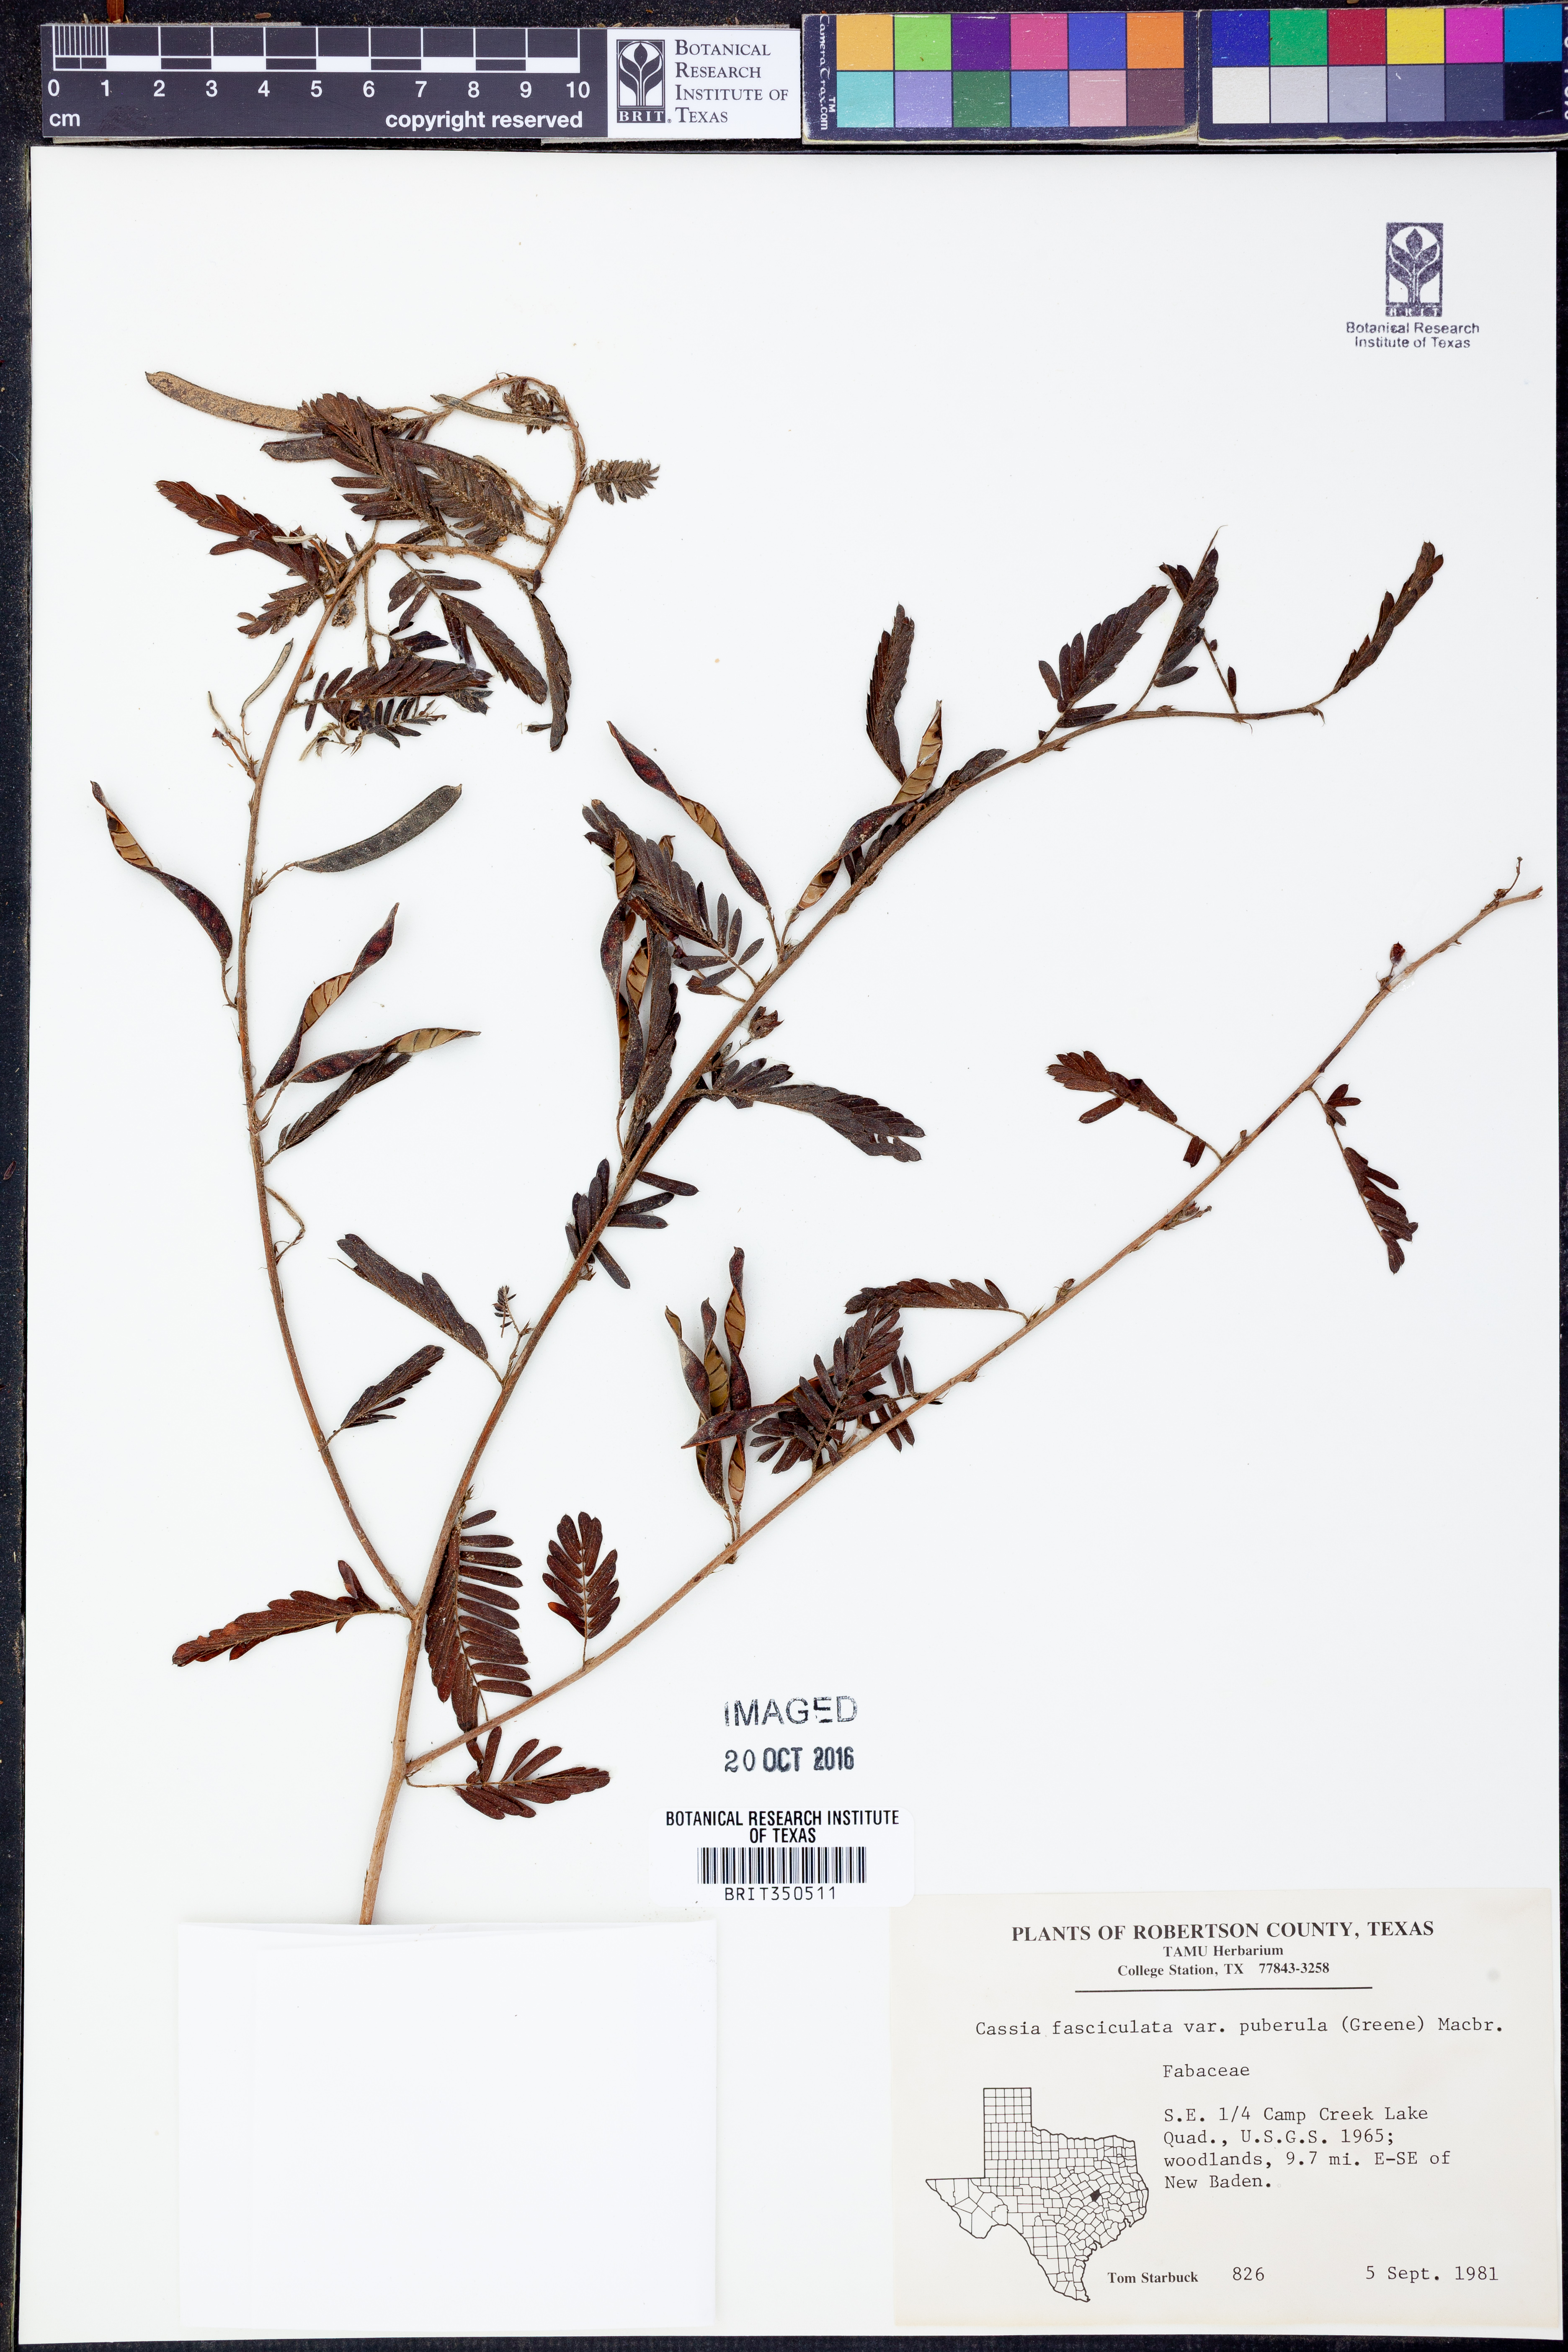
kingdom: Plantae
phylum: Tracheophyta
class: Magnoliopsida
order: Fabales
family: Fabaceae
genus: Chamaecrista
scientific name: Chamaecrista fasciculata
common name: Golden cassia
